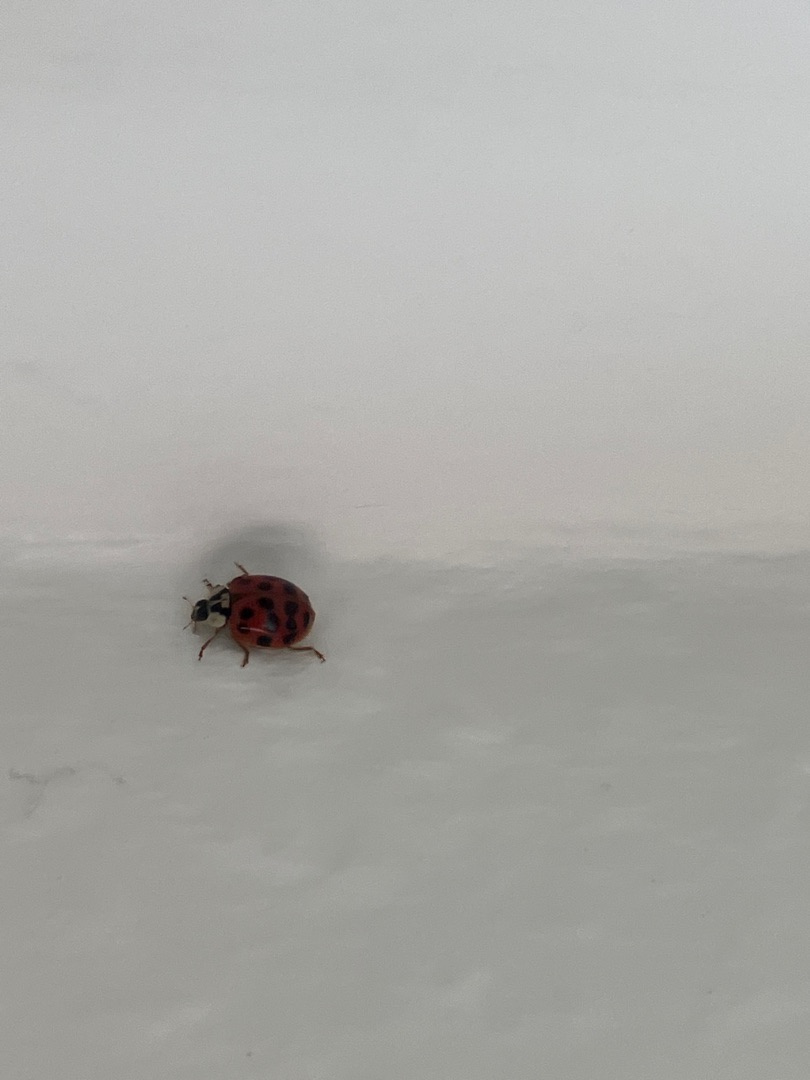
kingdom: Animalia
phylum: Arthropoda
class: Insecta
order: Coleoptera
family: Coccinellidae
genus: Harmonia
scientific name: Harmonia axyridis
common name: Harlekinmariehøne
